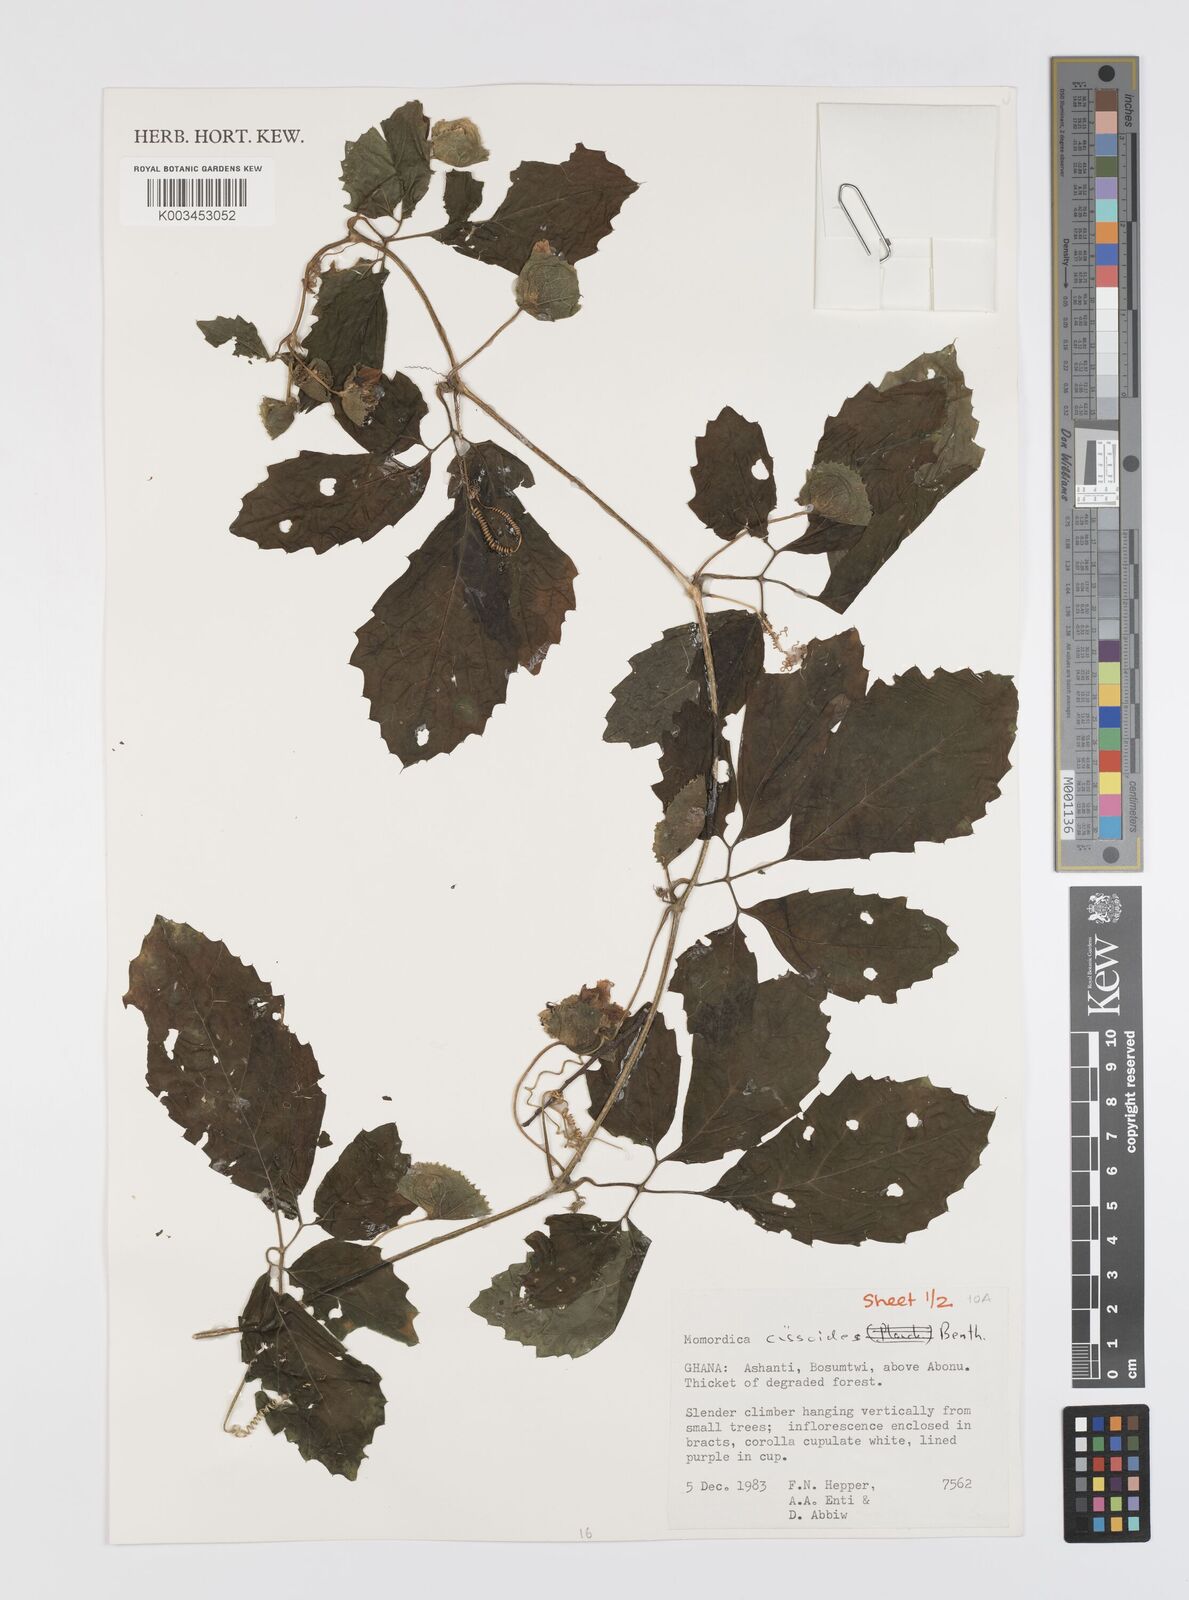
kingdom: Plantae
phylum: Tracheophyta
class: Magnoliopsida
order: Cucurbitales
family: Cucurbitaceae
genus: Momordica
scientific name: Momordica cissoides
